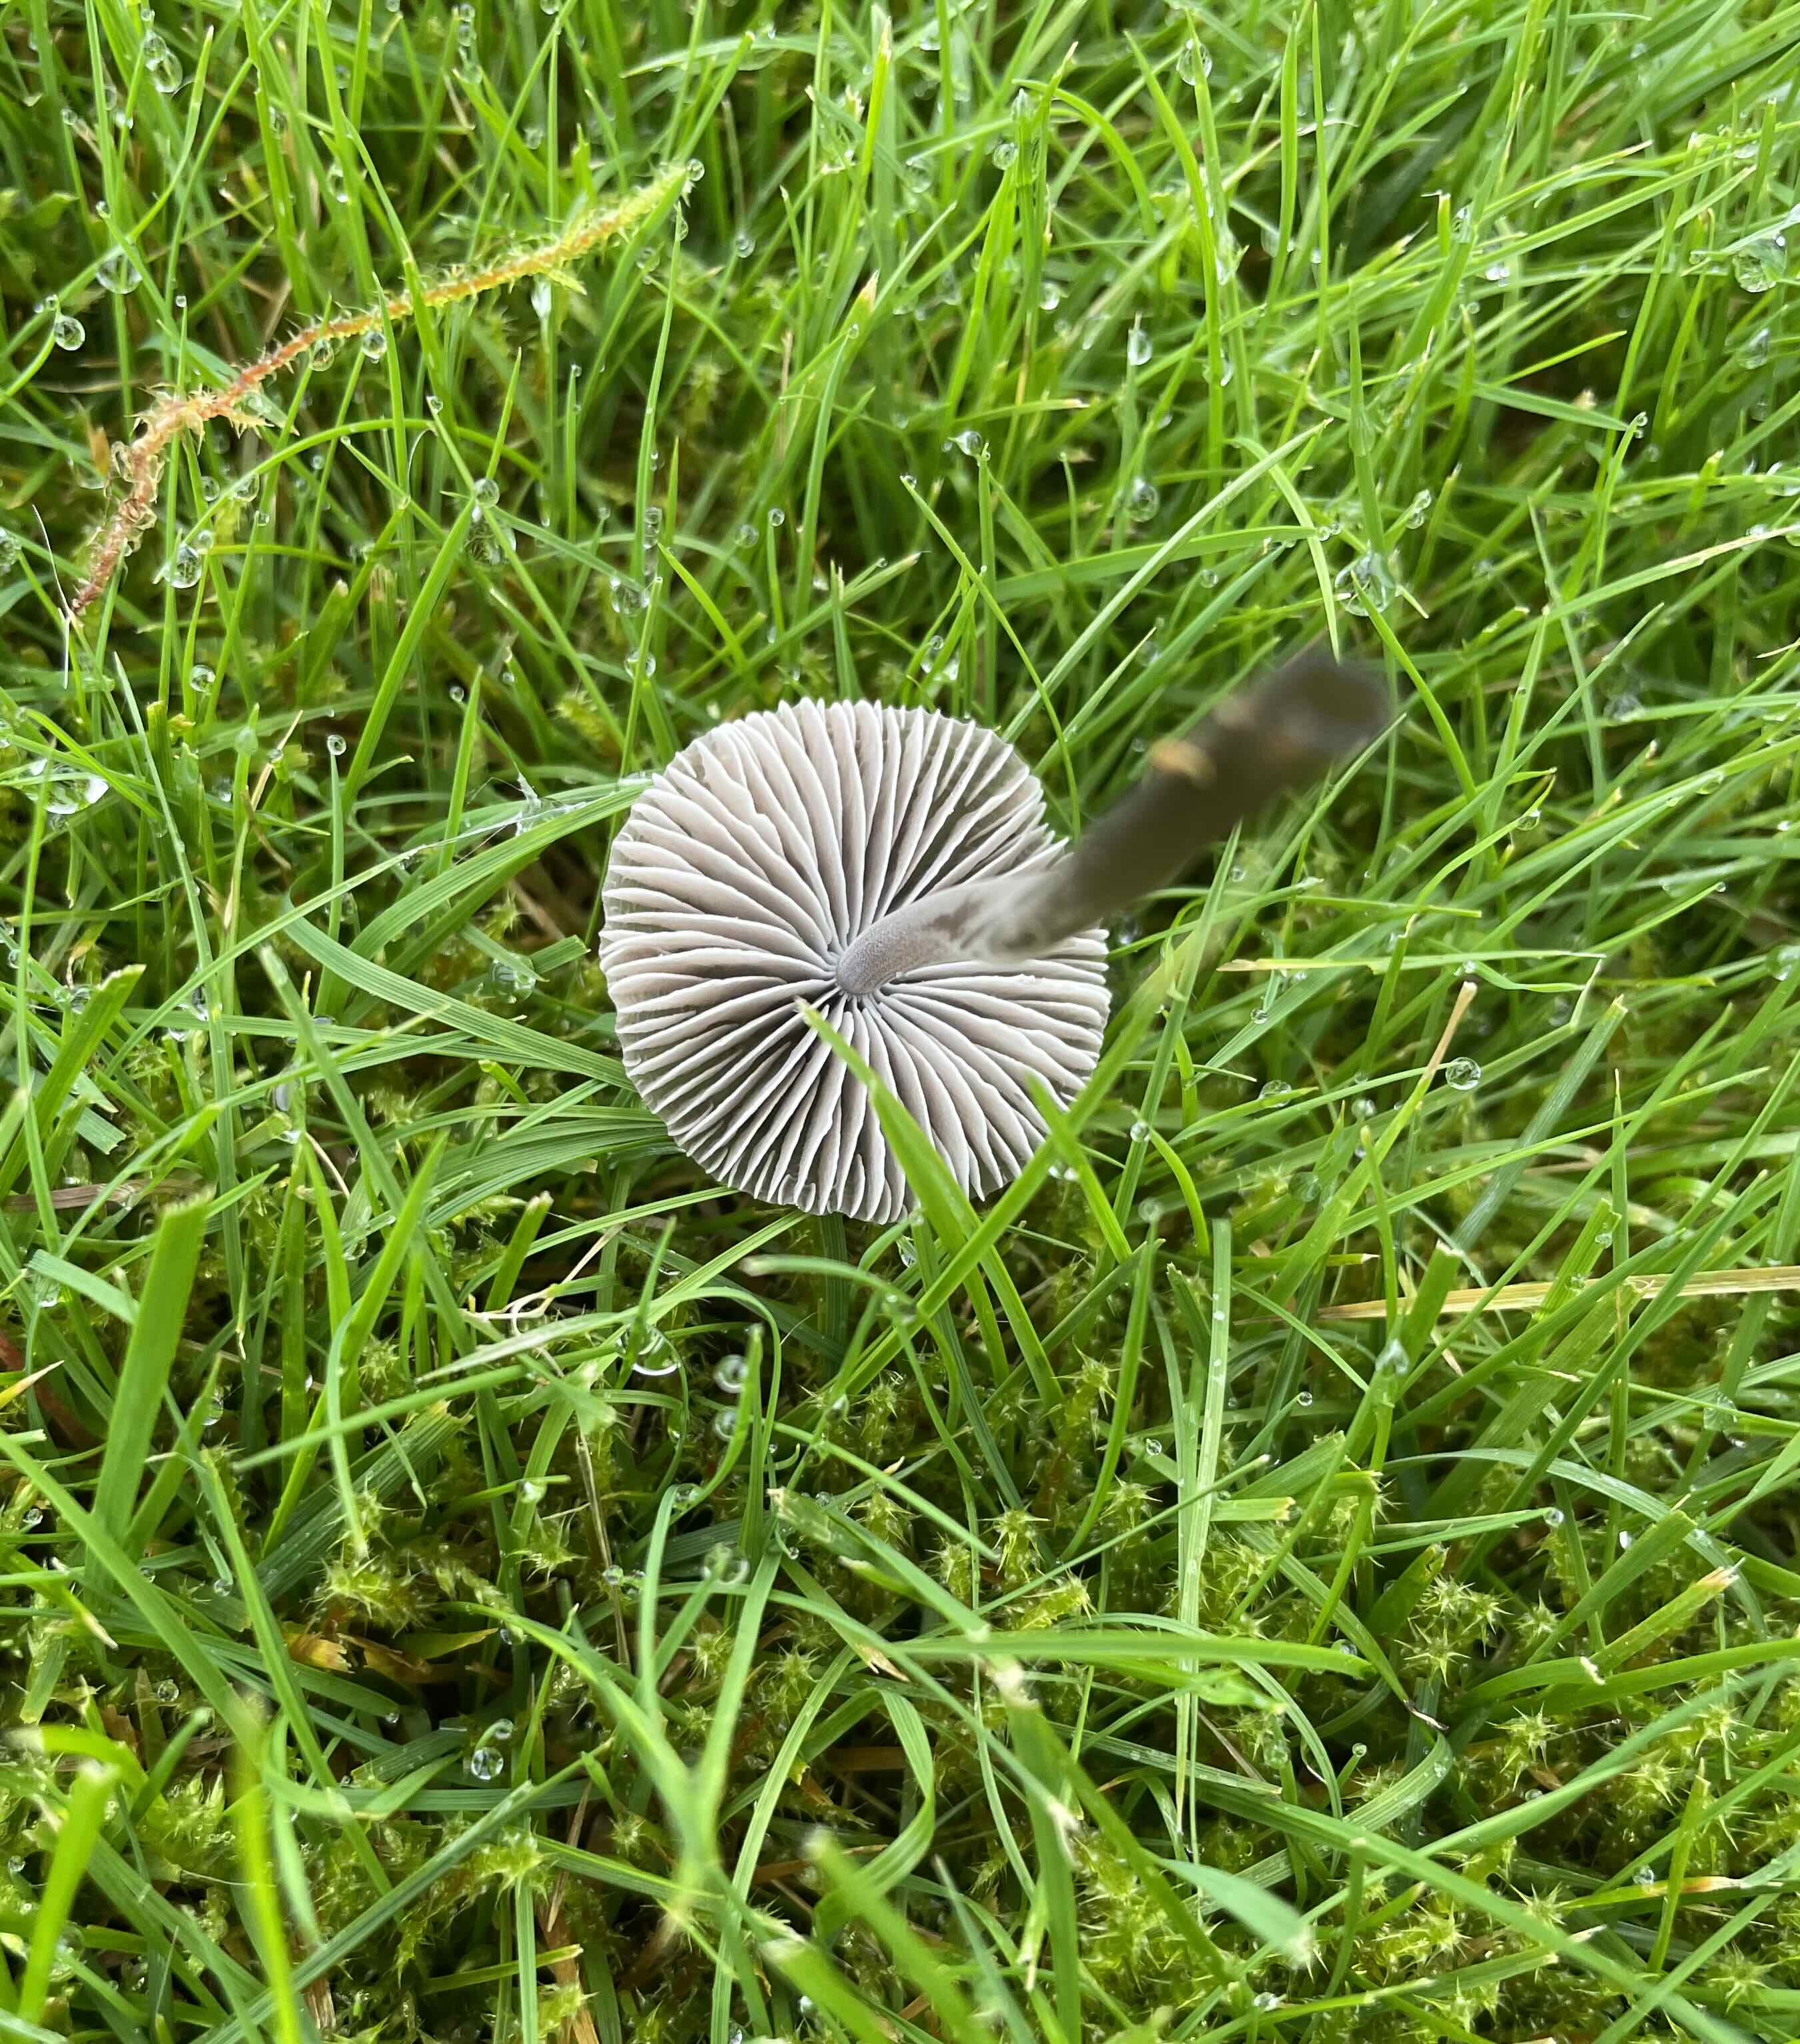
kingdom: Fungi
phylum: Basidiomycota
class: Agaricomycetes
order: Agaricales
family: Mycenaceae
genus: Mycena
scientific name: Mycena leptocephala
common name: klor-huesvamp
